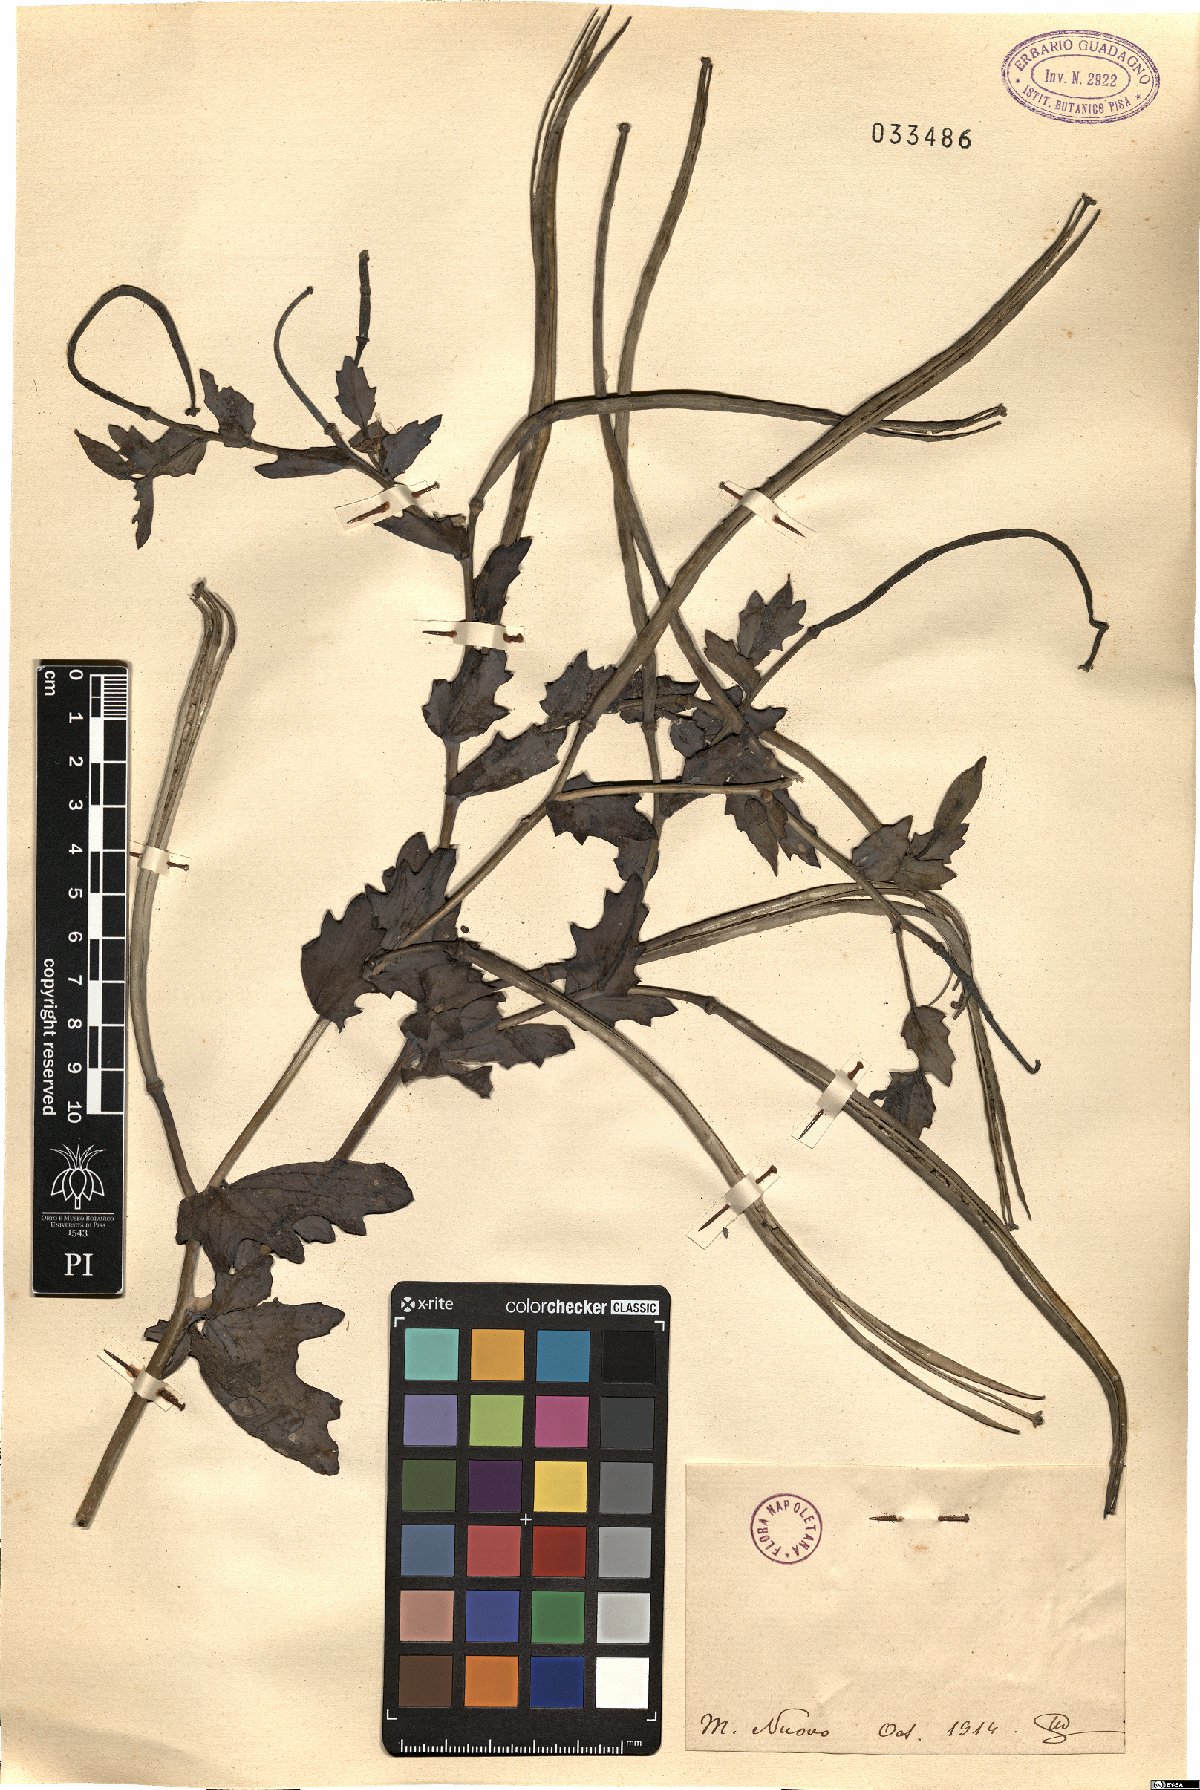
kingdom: Plantae
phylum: Tracheophyta
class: Magnoliopsida
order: Ranunculales
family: Papaveraceae
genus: Glaucium
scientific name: Glaucium
